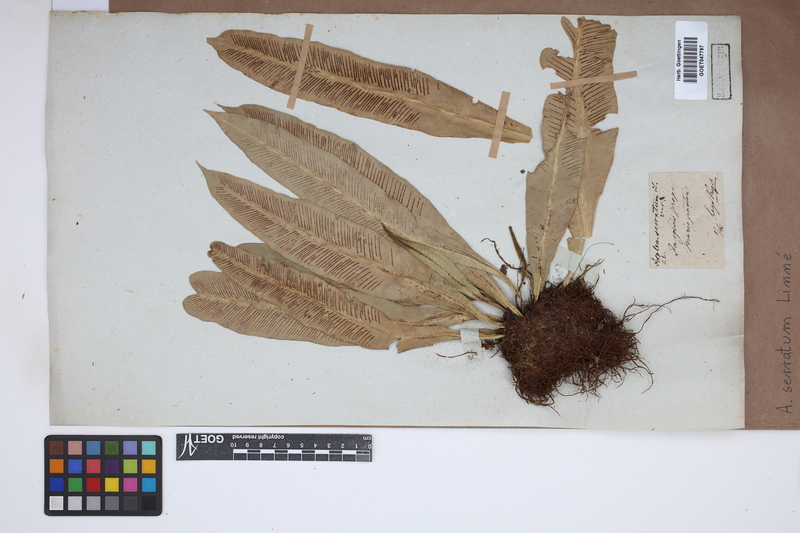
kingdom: Plantae
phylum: Tracheophyta
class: Polypodiopsida
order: Polypodiales
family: Aspleniaceae
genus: Asplenium
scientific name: Asplenium serratum
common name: Wild birdnest fern
